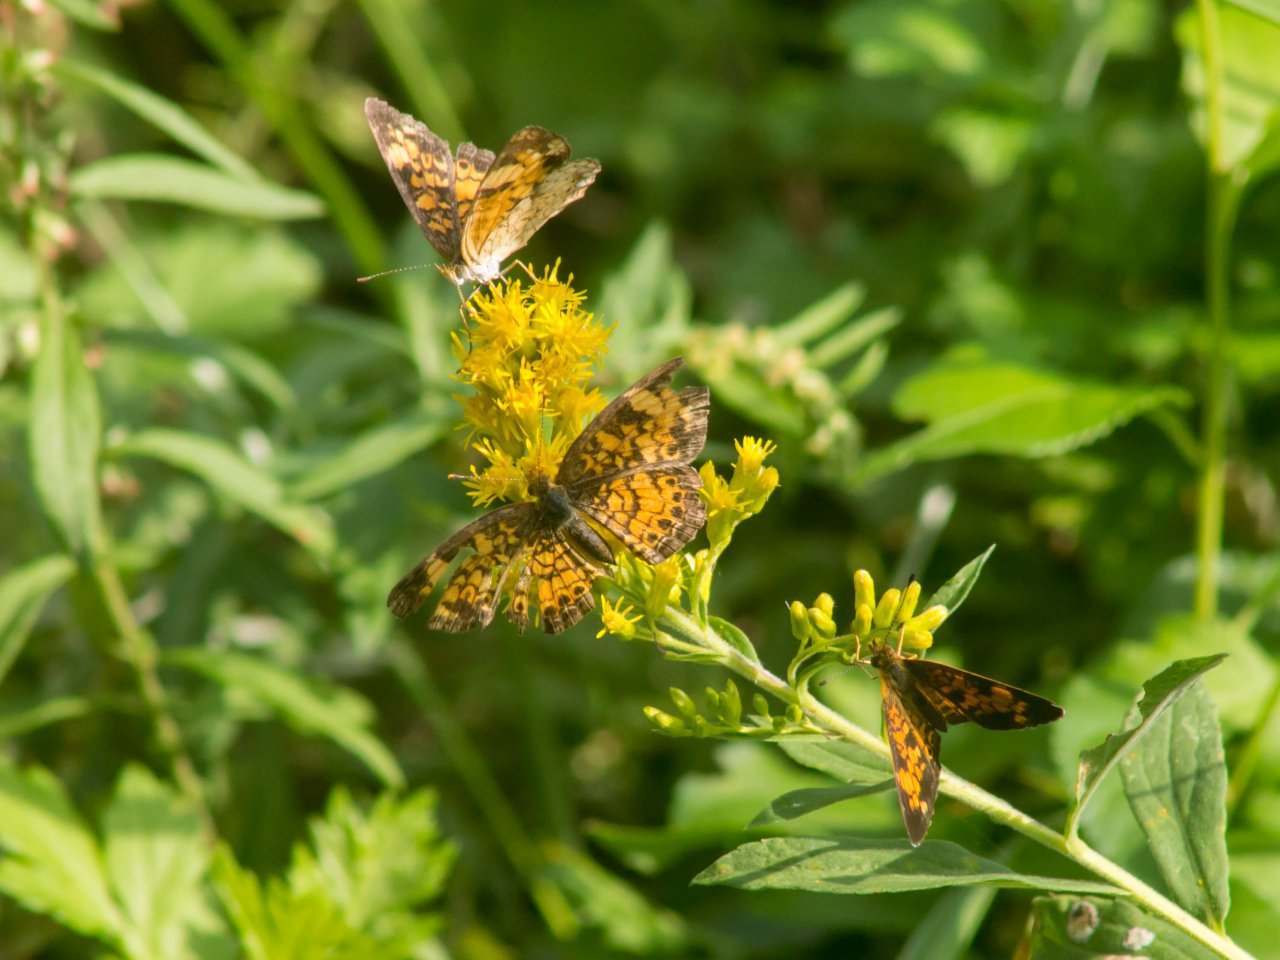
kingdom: Animalia
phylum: Arthropoda
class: Insecta
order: Lepidoptera
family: Nymphalidae
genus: Phyciodes
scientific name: Phyciodes tharos
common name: Pearl Crescent
